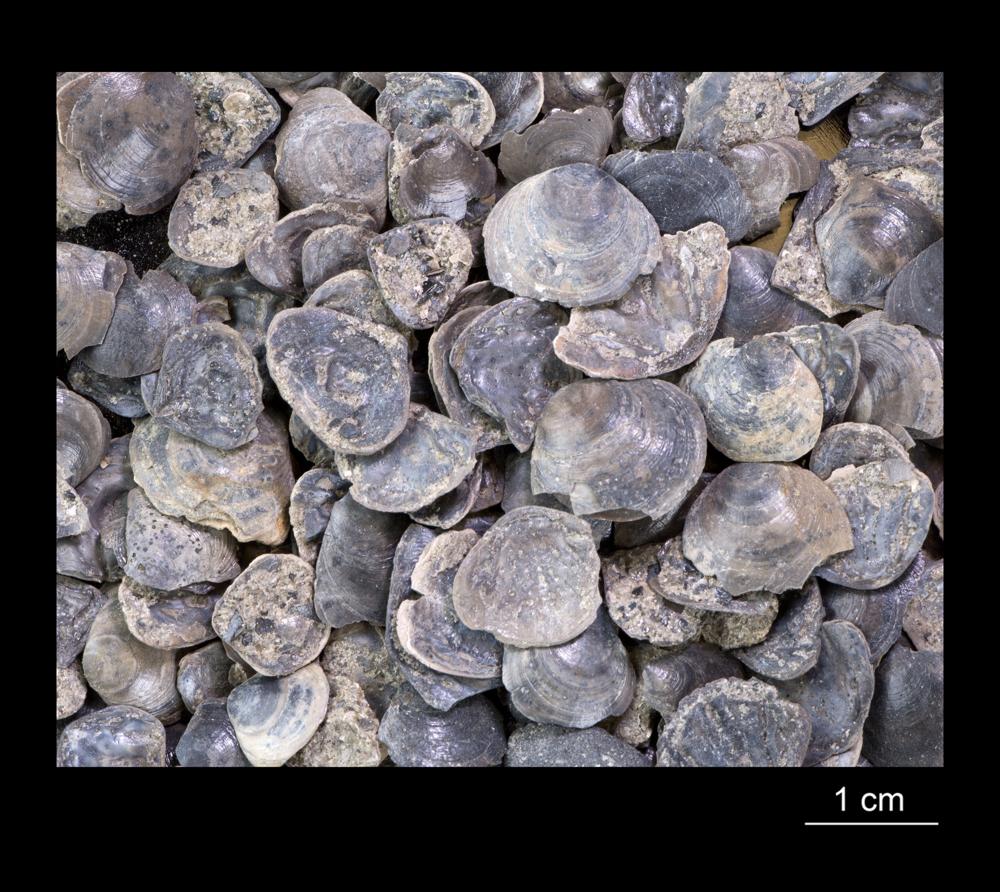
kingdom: Animalia
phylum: Brachiopoda
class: Lingulata
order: Lingulida
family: Obolidae
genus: Obolus
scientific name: Obolus
